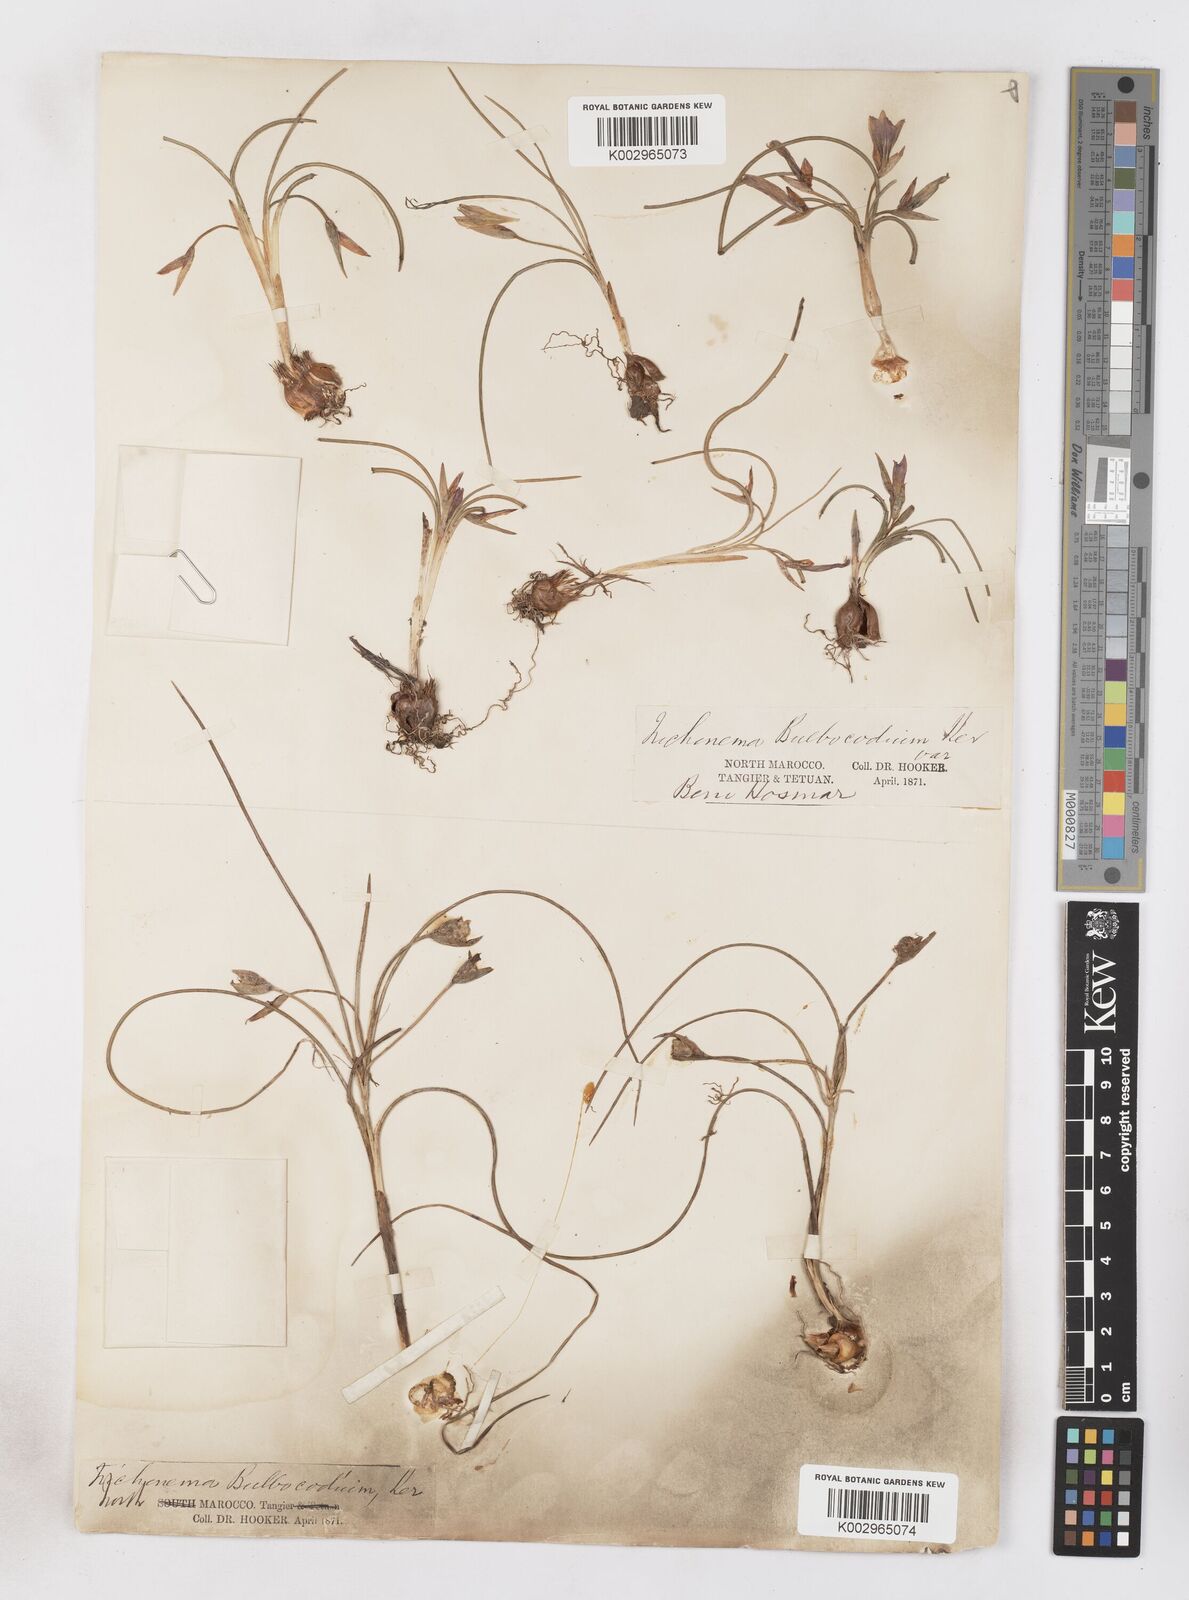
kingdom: Plantae
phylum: Tracheophyta
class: Liliopsida
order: Asparagales
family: Iridaceae
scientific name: Iridaceae
